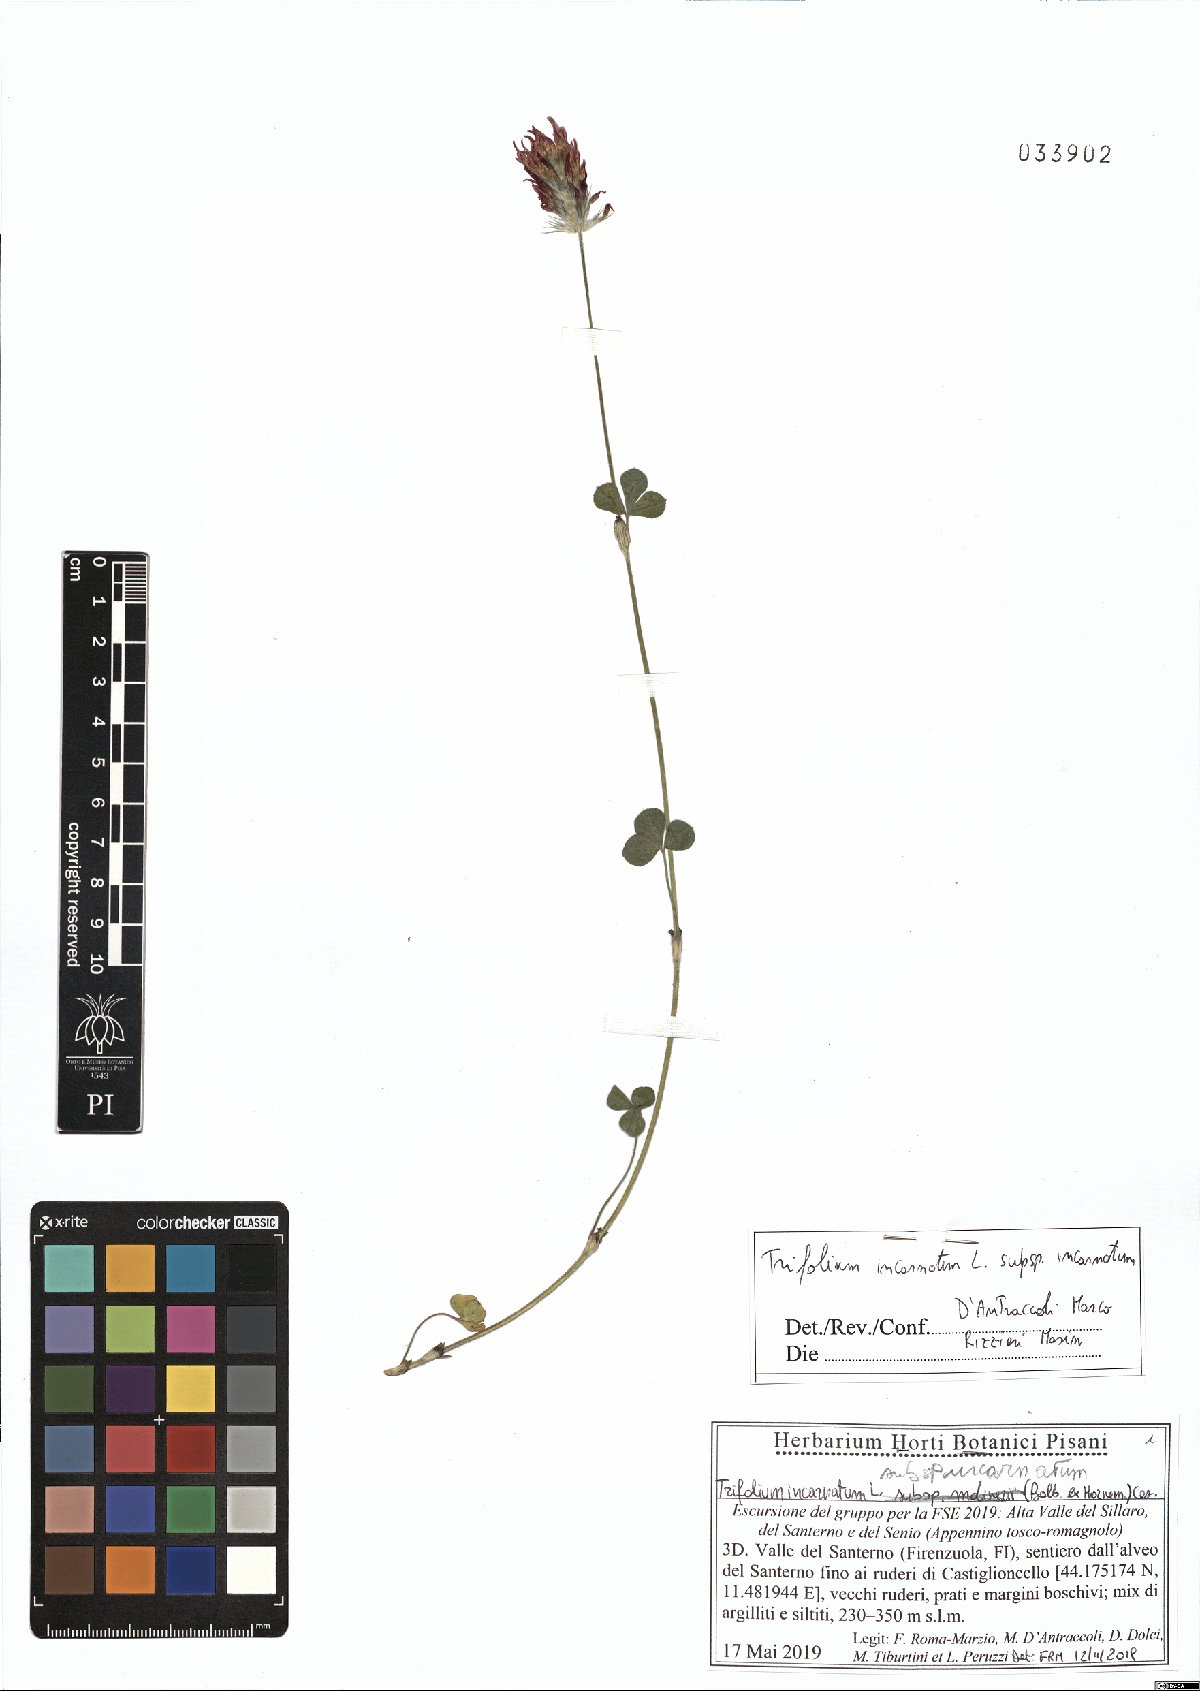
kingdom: Plantae
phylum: Tracheophyta
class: Magnoliopsida
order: Fabales
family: Fabaceae
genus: Trifolium
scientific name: Trifolium incarnatum
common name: Crimson clover
